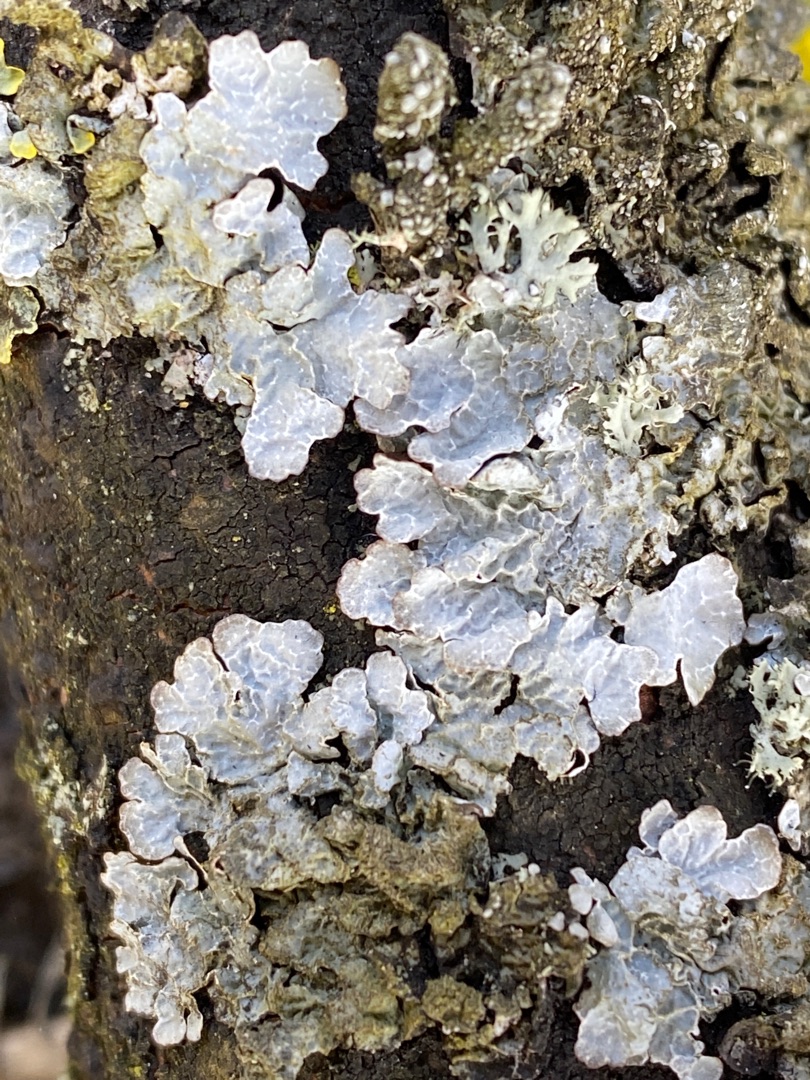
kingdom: Fungi
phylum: Ascomycota
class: Lecanoromycetes
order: Lecanorales
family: Parmeliaceae
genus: Parmelia
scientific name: Parmelia sulcata
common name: Rynket skållav
